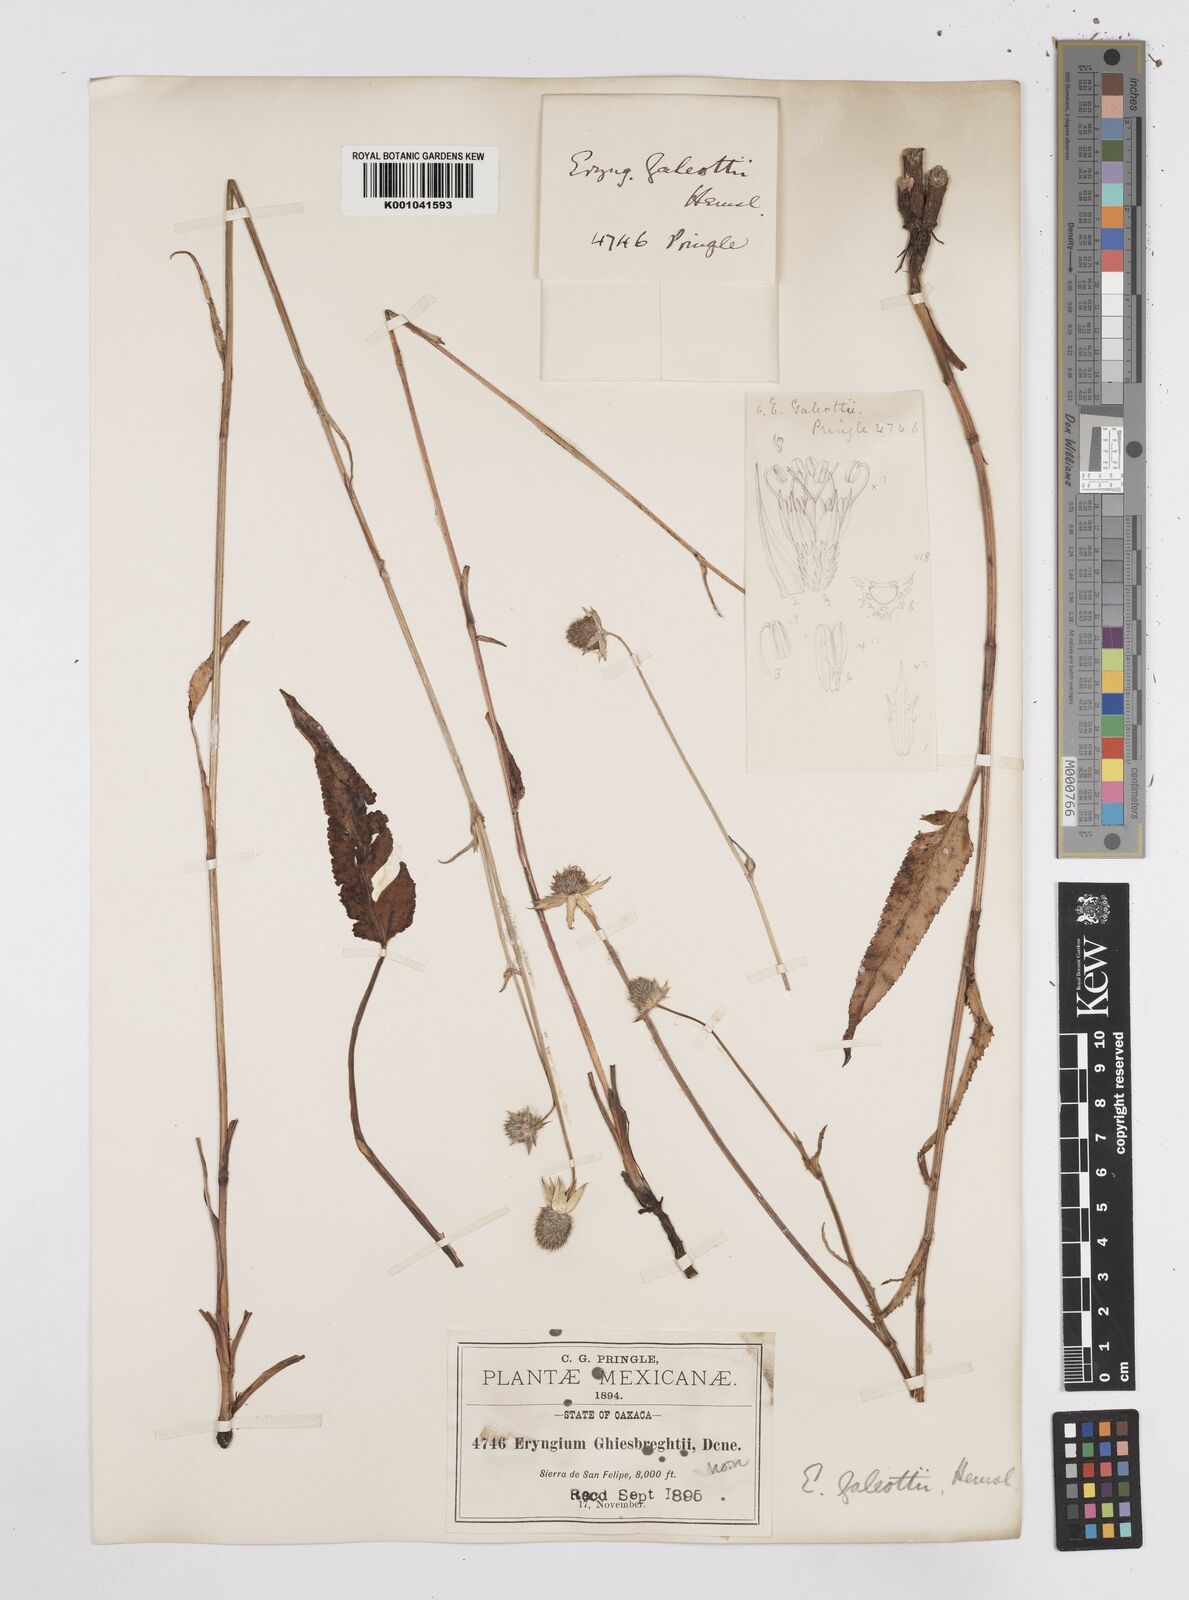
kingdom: Plantae
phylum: Tracheophyta
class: Magnoliopsida
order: Apiales
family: Apiaceae
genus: Eryngium
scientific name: Eryngium galeottii
